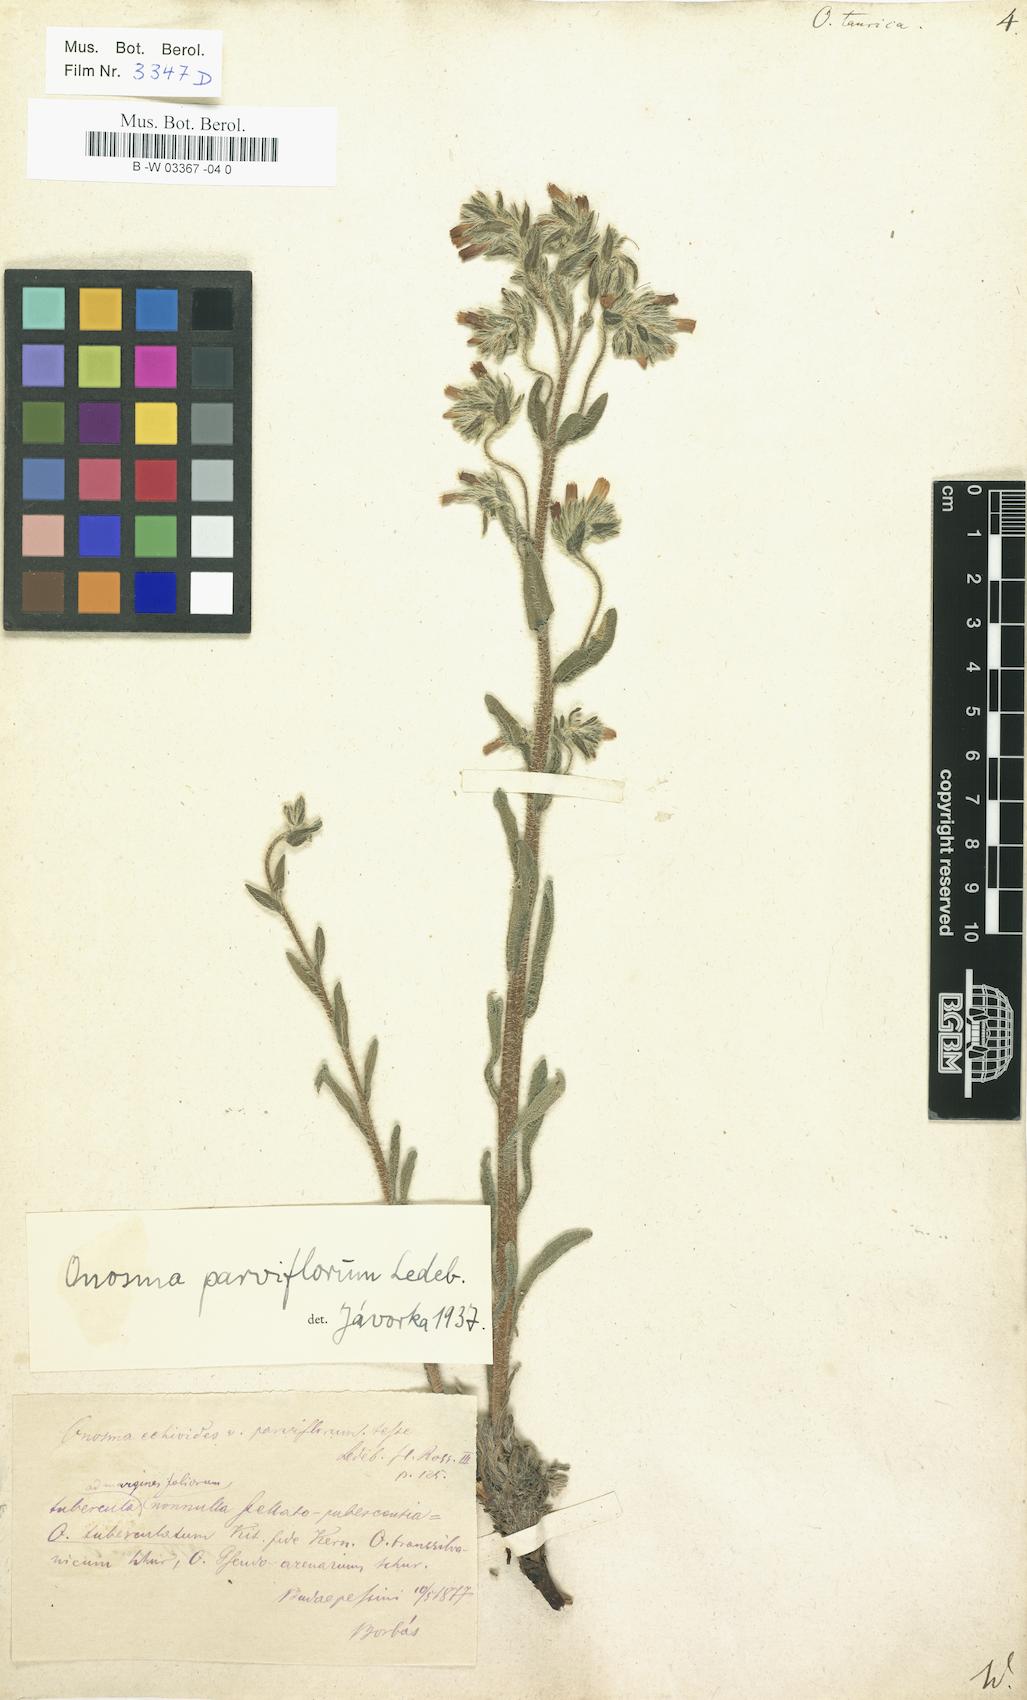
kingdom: Plantae
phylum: Tracheophyta
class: Magnoliopsida
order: Boraginales
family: Boraginaceae
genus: Onosma
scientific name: Onosma taurica
